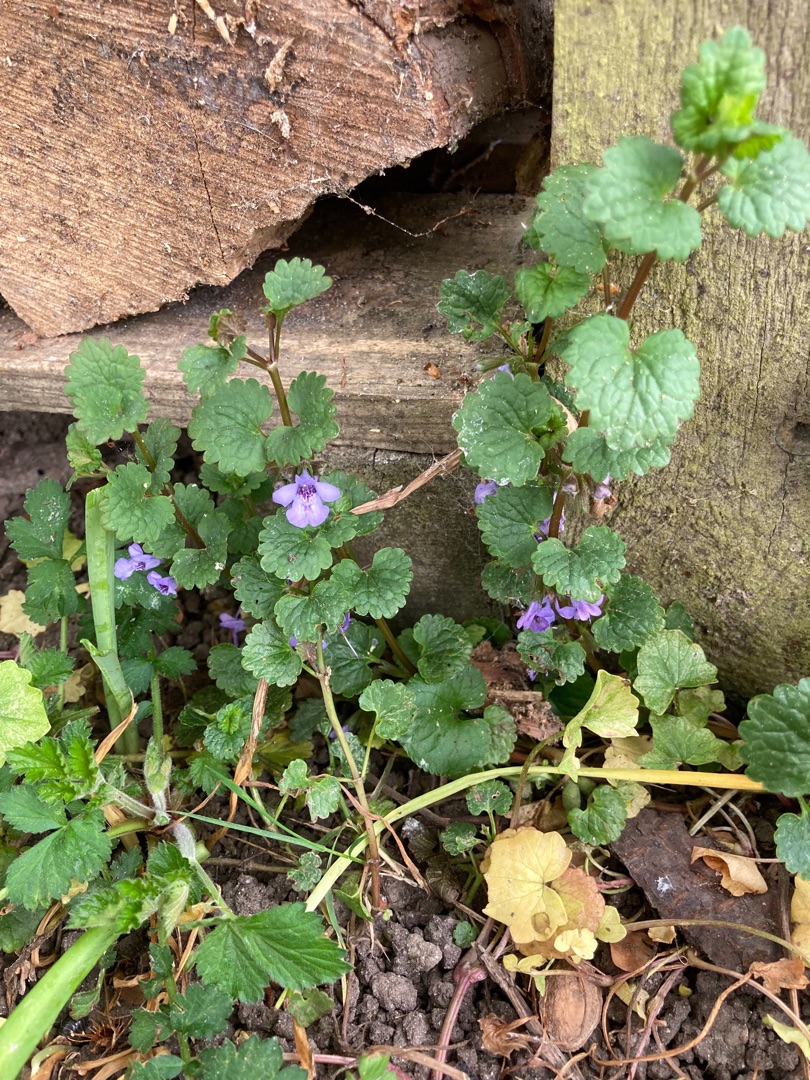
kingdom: Plantae
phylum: Tracheophyta
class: Magnoliopsida
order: Lamiales
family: Lamiaceae
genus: Glechoma
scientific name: Glechoma hederacea
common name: Korsknap
